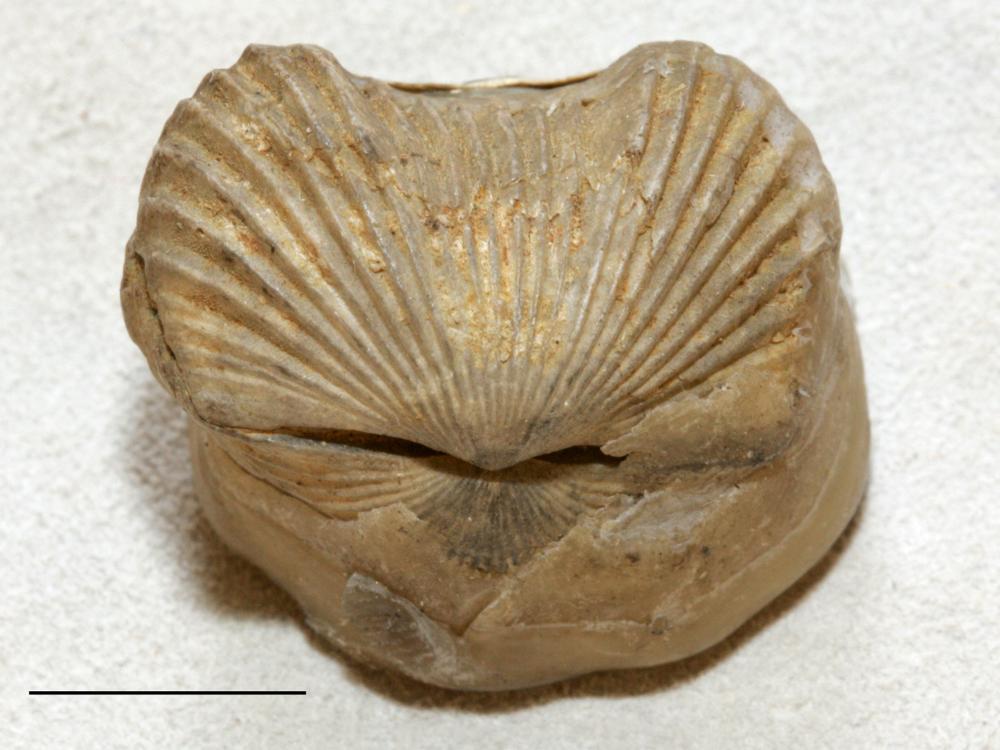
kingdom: Animalia
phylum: Brachiopoda
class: Rhynchonellata
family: Plectorthidae
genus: Platystrophia
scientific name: Platystrophia Terebratulites biforatus
